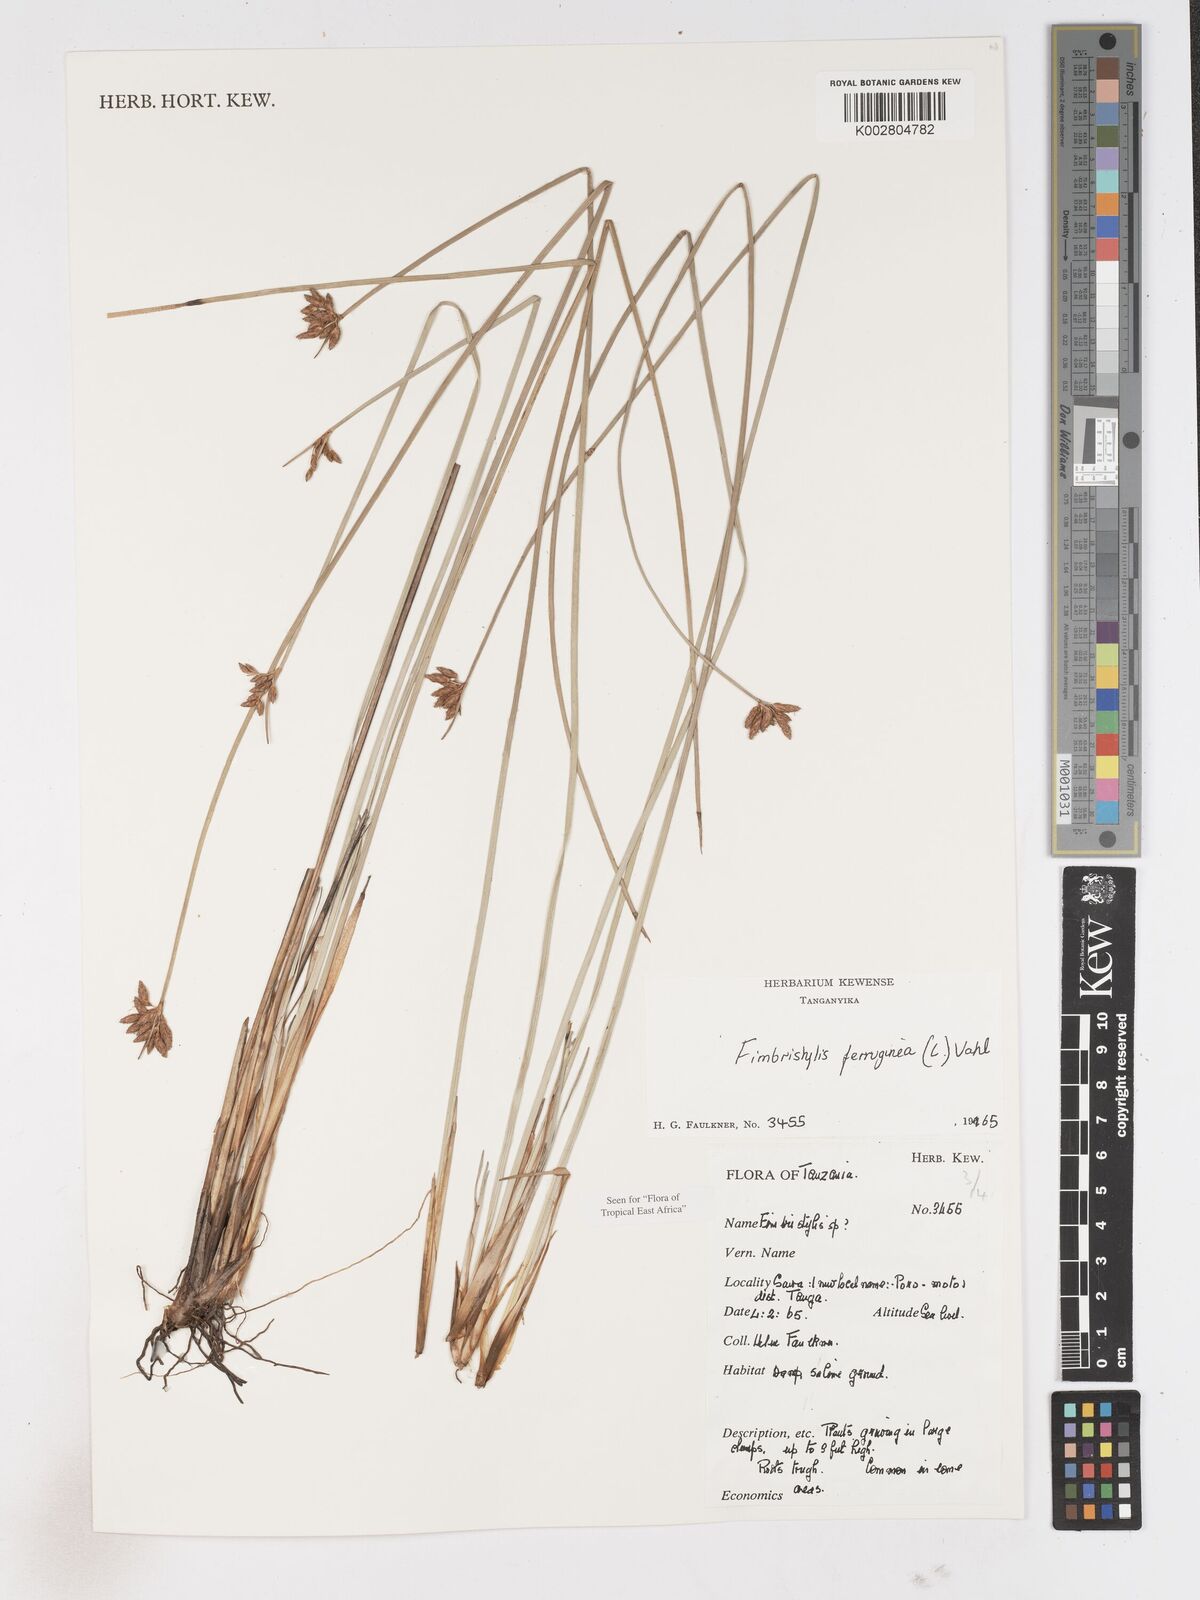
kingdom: Plantae
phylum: Tracheophyta
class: Liliopsida
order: Poales
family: Cyperaceae
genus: Fimbristylis
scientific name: Fimbristylis ferruginea
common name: West indian fimbry
